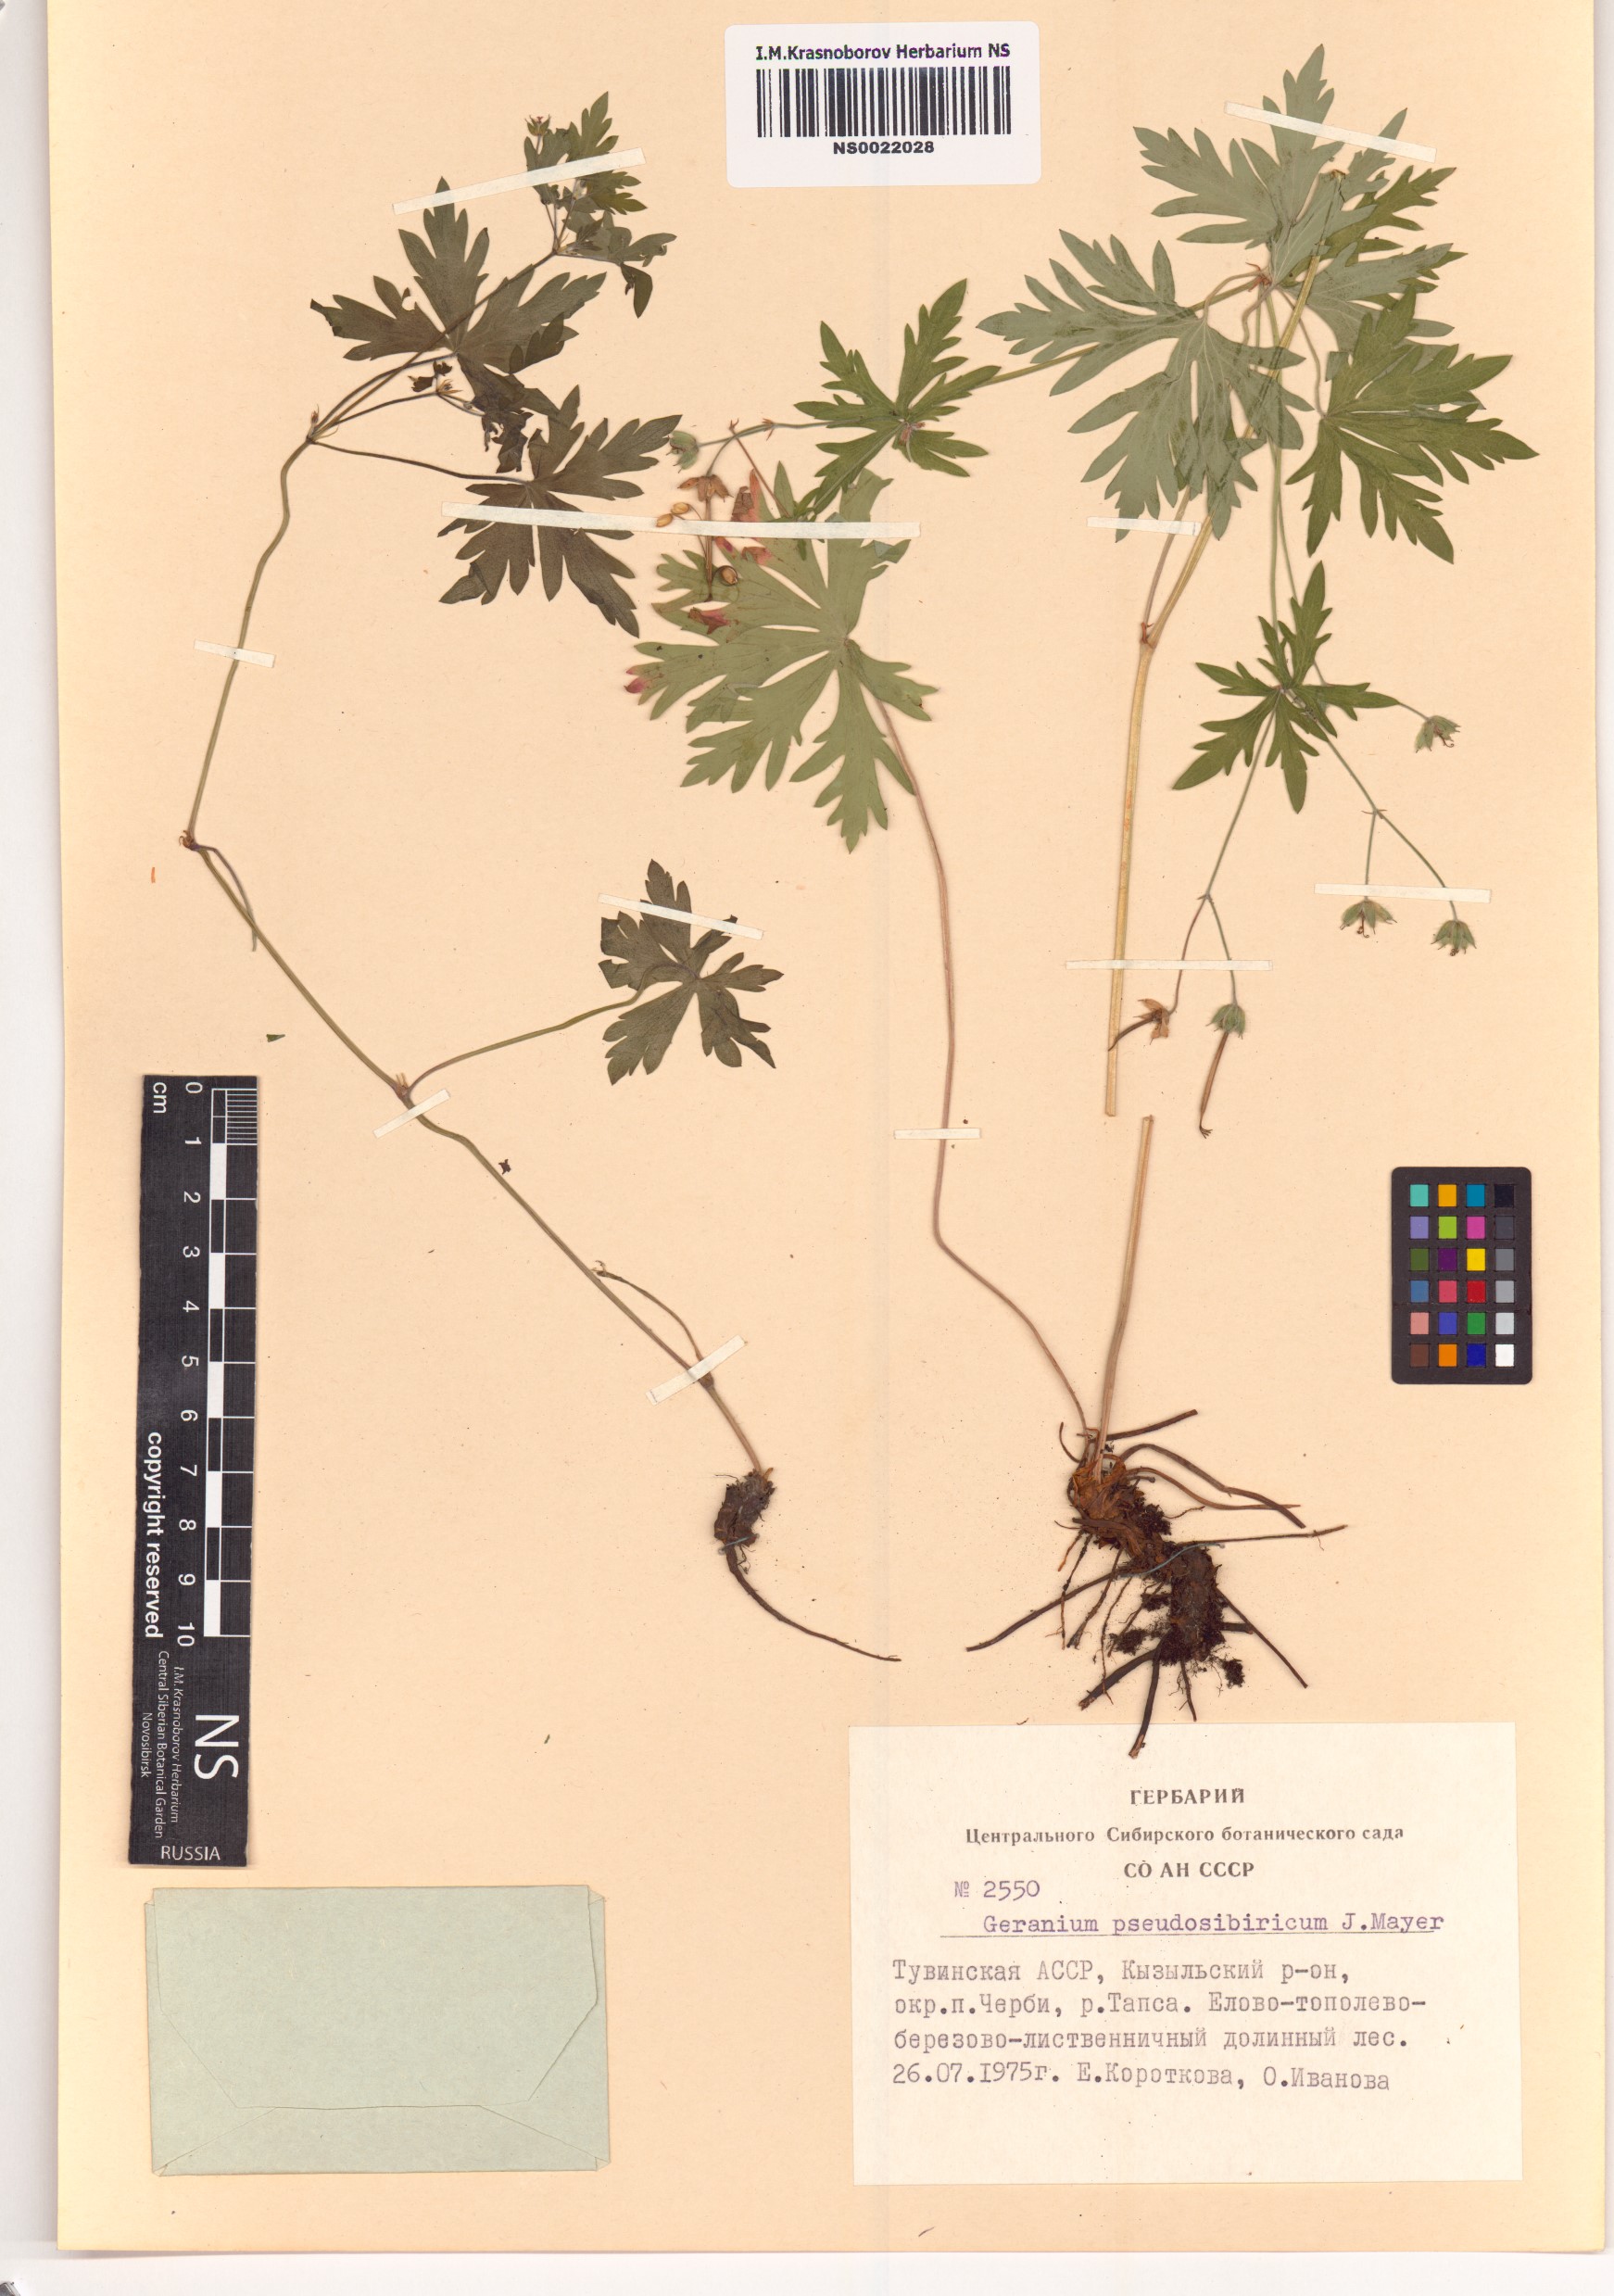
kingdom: Plantae
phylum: Tracheophyta
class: Magnoliopsida
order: Geraniales
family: Geraniaceae
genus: Geranium
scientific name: Geranium pseudosibiricum
